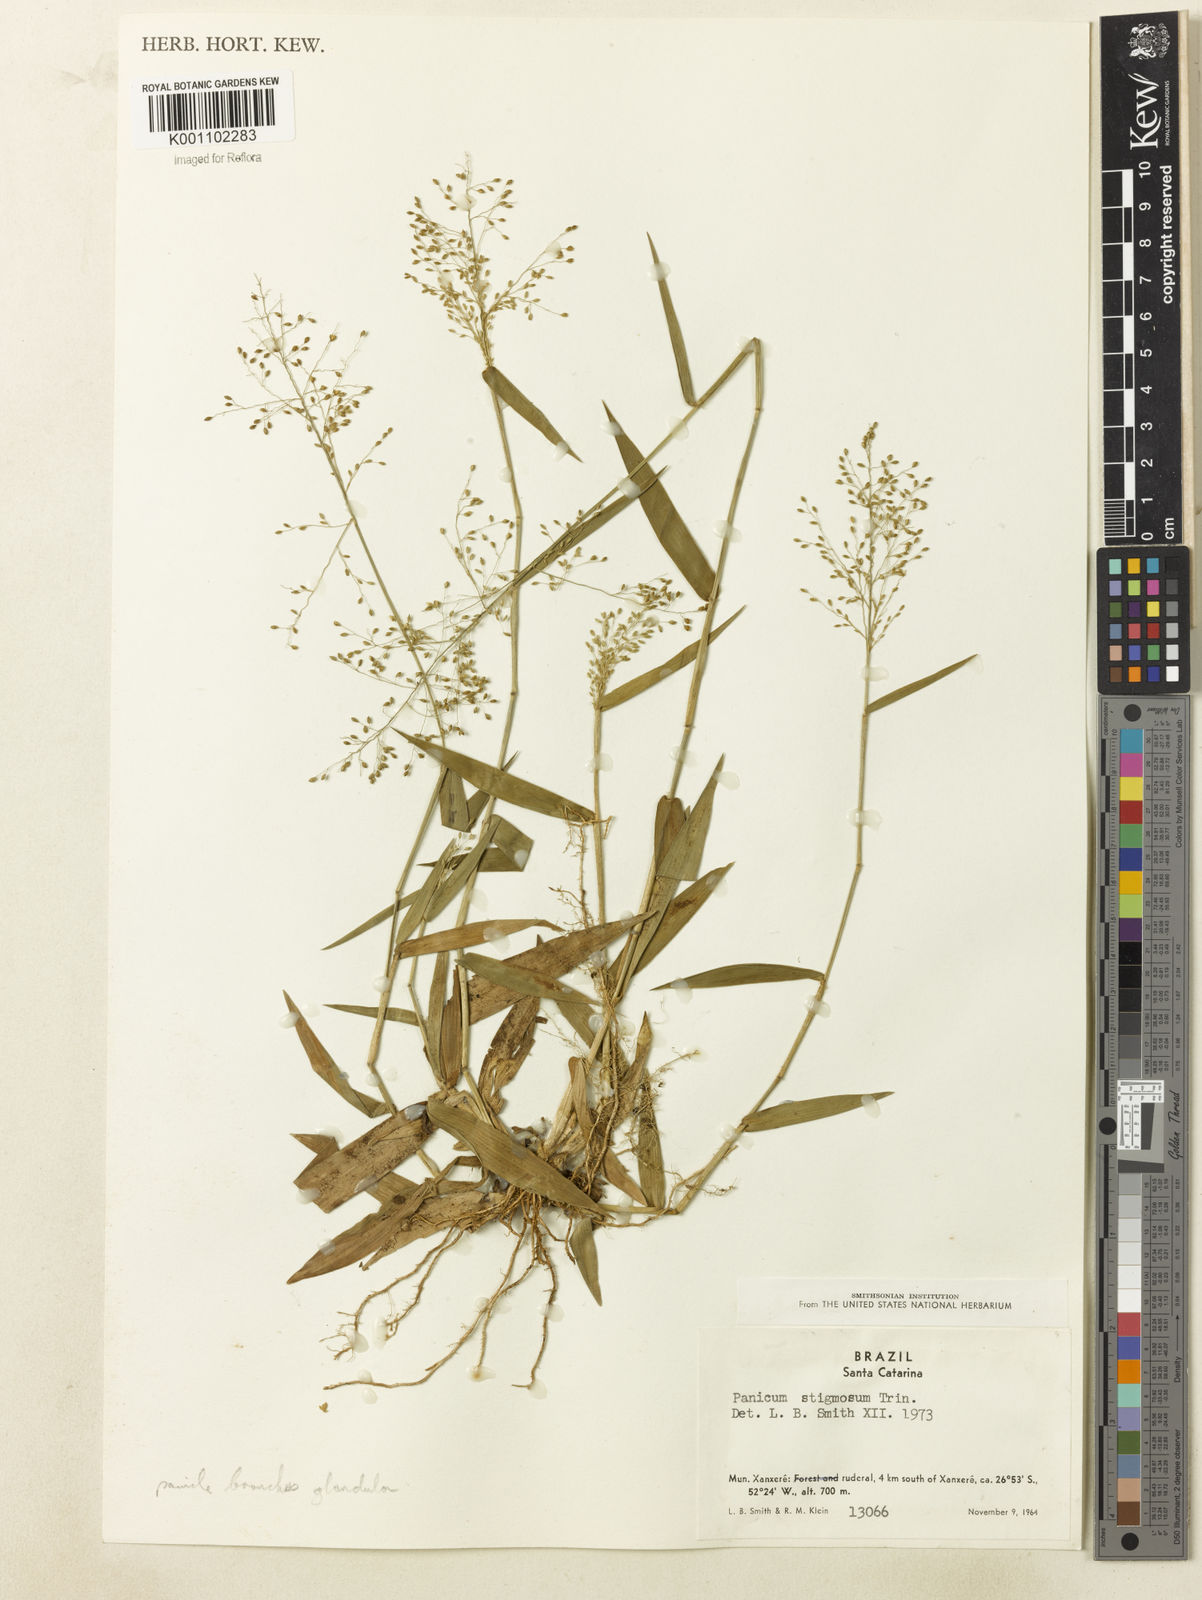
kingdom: Plantae
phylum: Tracheophyta
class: Liliopsida
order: Poales
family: Poaceae
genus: Dichanthelium
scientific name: Dichanthelium stigmosum
